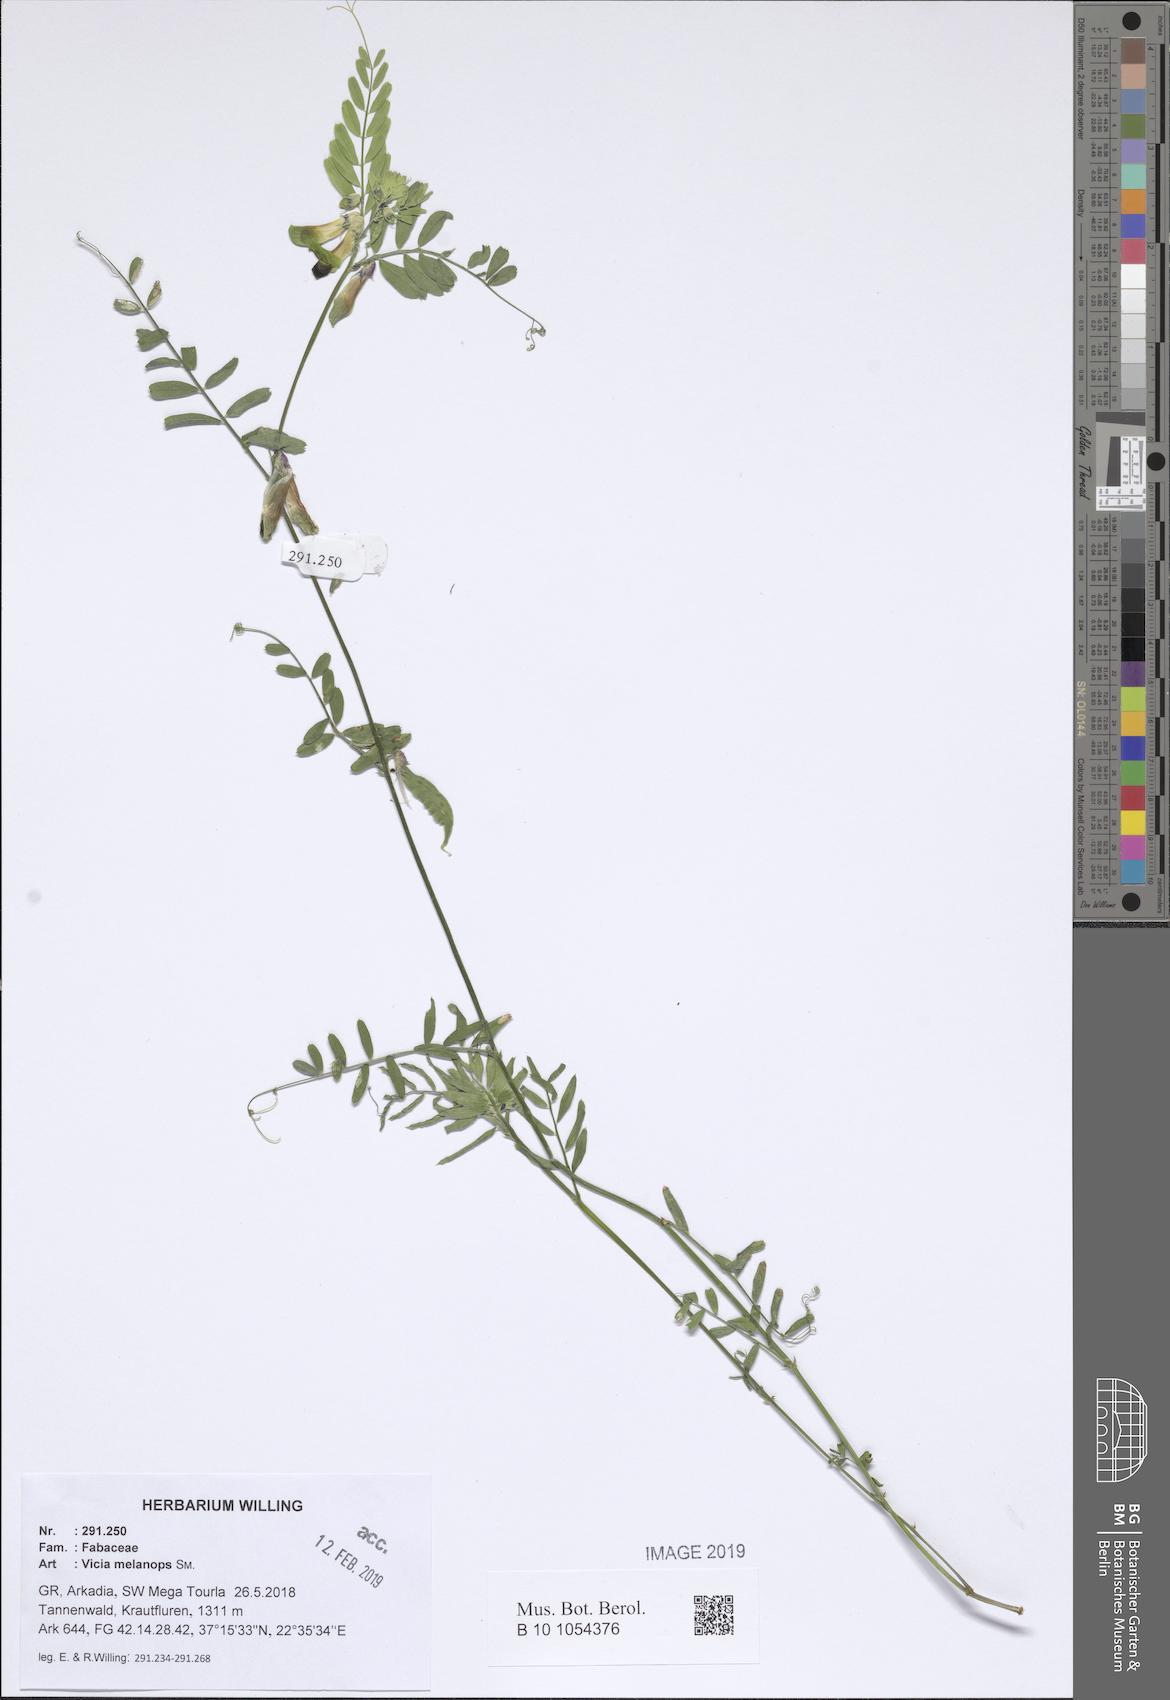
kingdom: Plantae
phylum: Tracheophyta
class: Magnoliopsida
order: Fabales
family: Fabaceae
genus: Vicia
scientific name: Vicia melanops
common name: Black-eyed vetch
